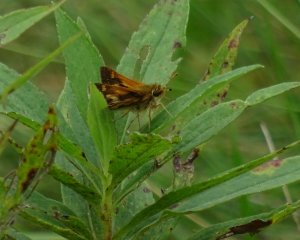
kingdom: Animalia
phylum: Arthropoda
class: Insecta
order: Lepidoptera
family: Hesperiidae
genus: Polites
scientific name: Polites coras
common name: Peck's Skipper
